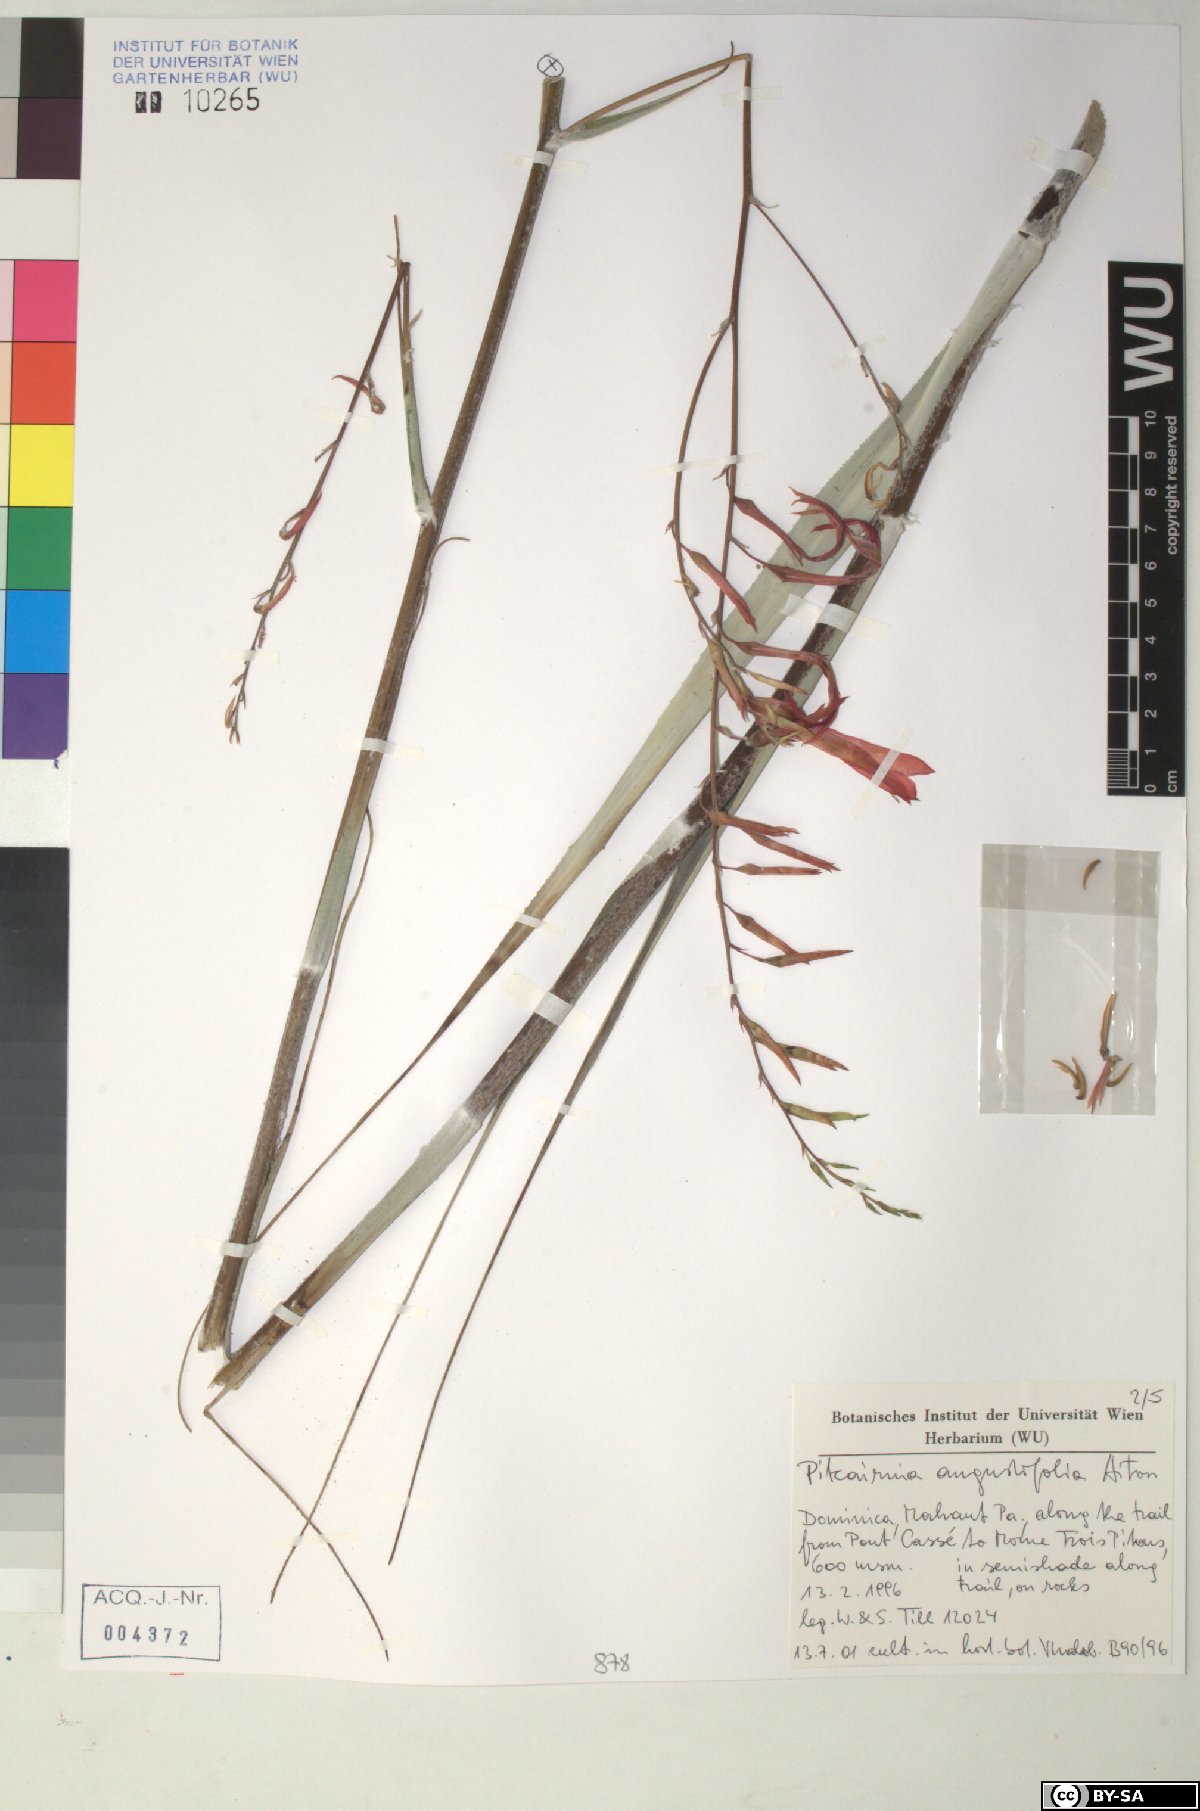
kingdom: Plantae
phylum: Tracheophyta
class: Liliopsida
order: Poales
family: Bromeliaceae
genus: Pitcairnia
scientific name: Pitcairnia angustifolia
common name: Clapper
